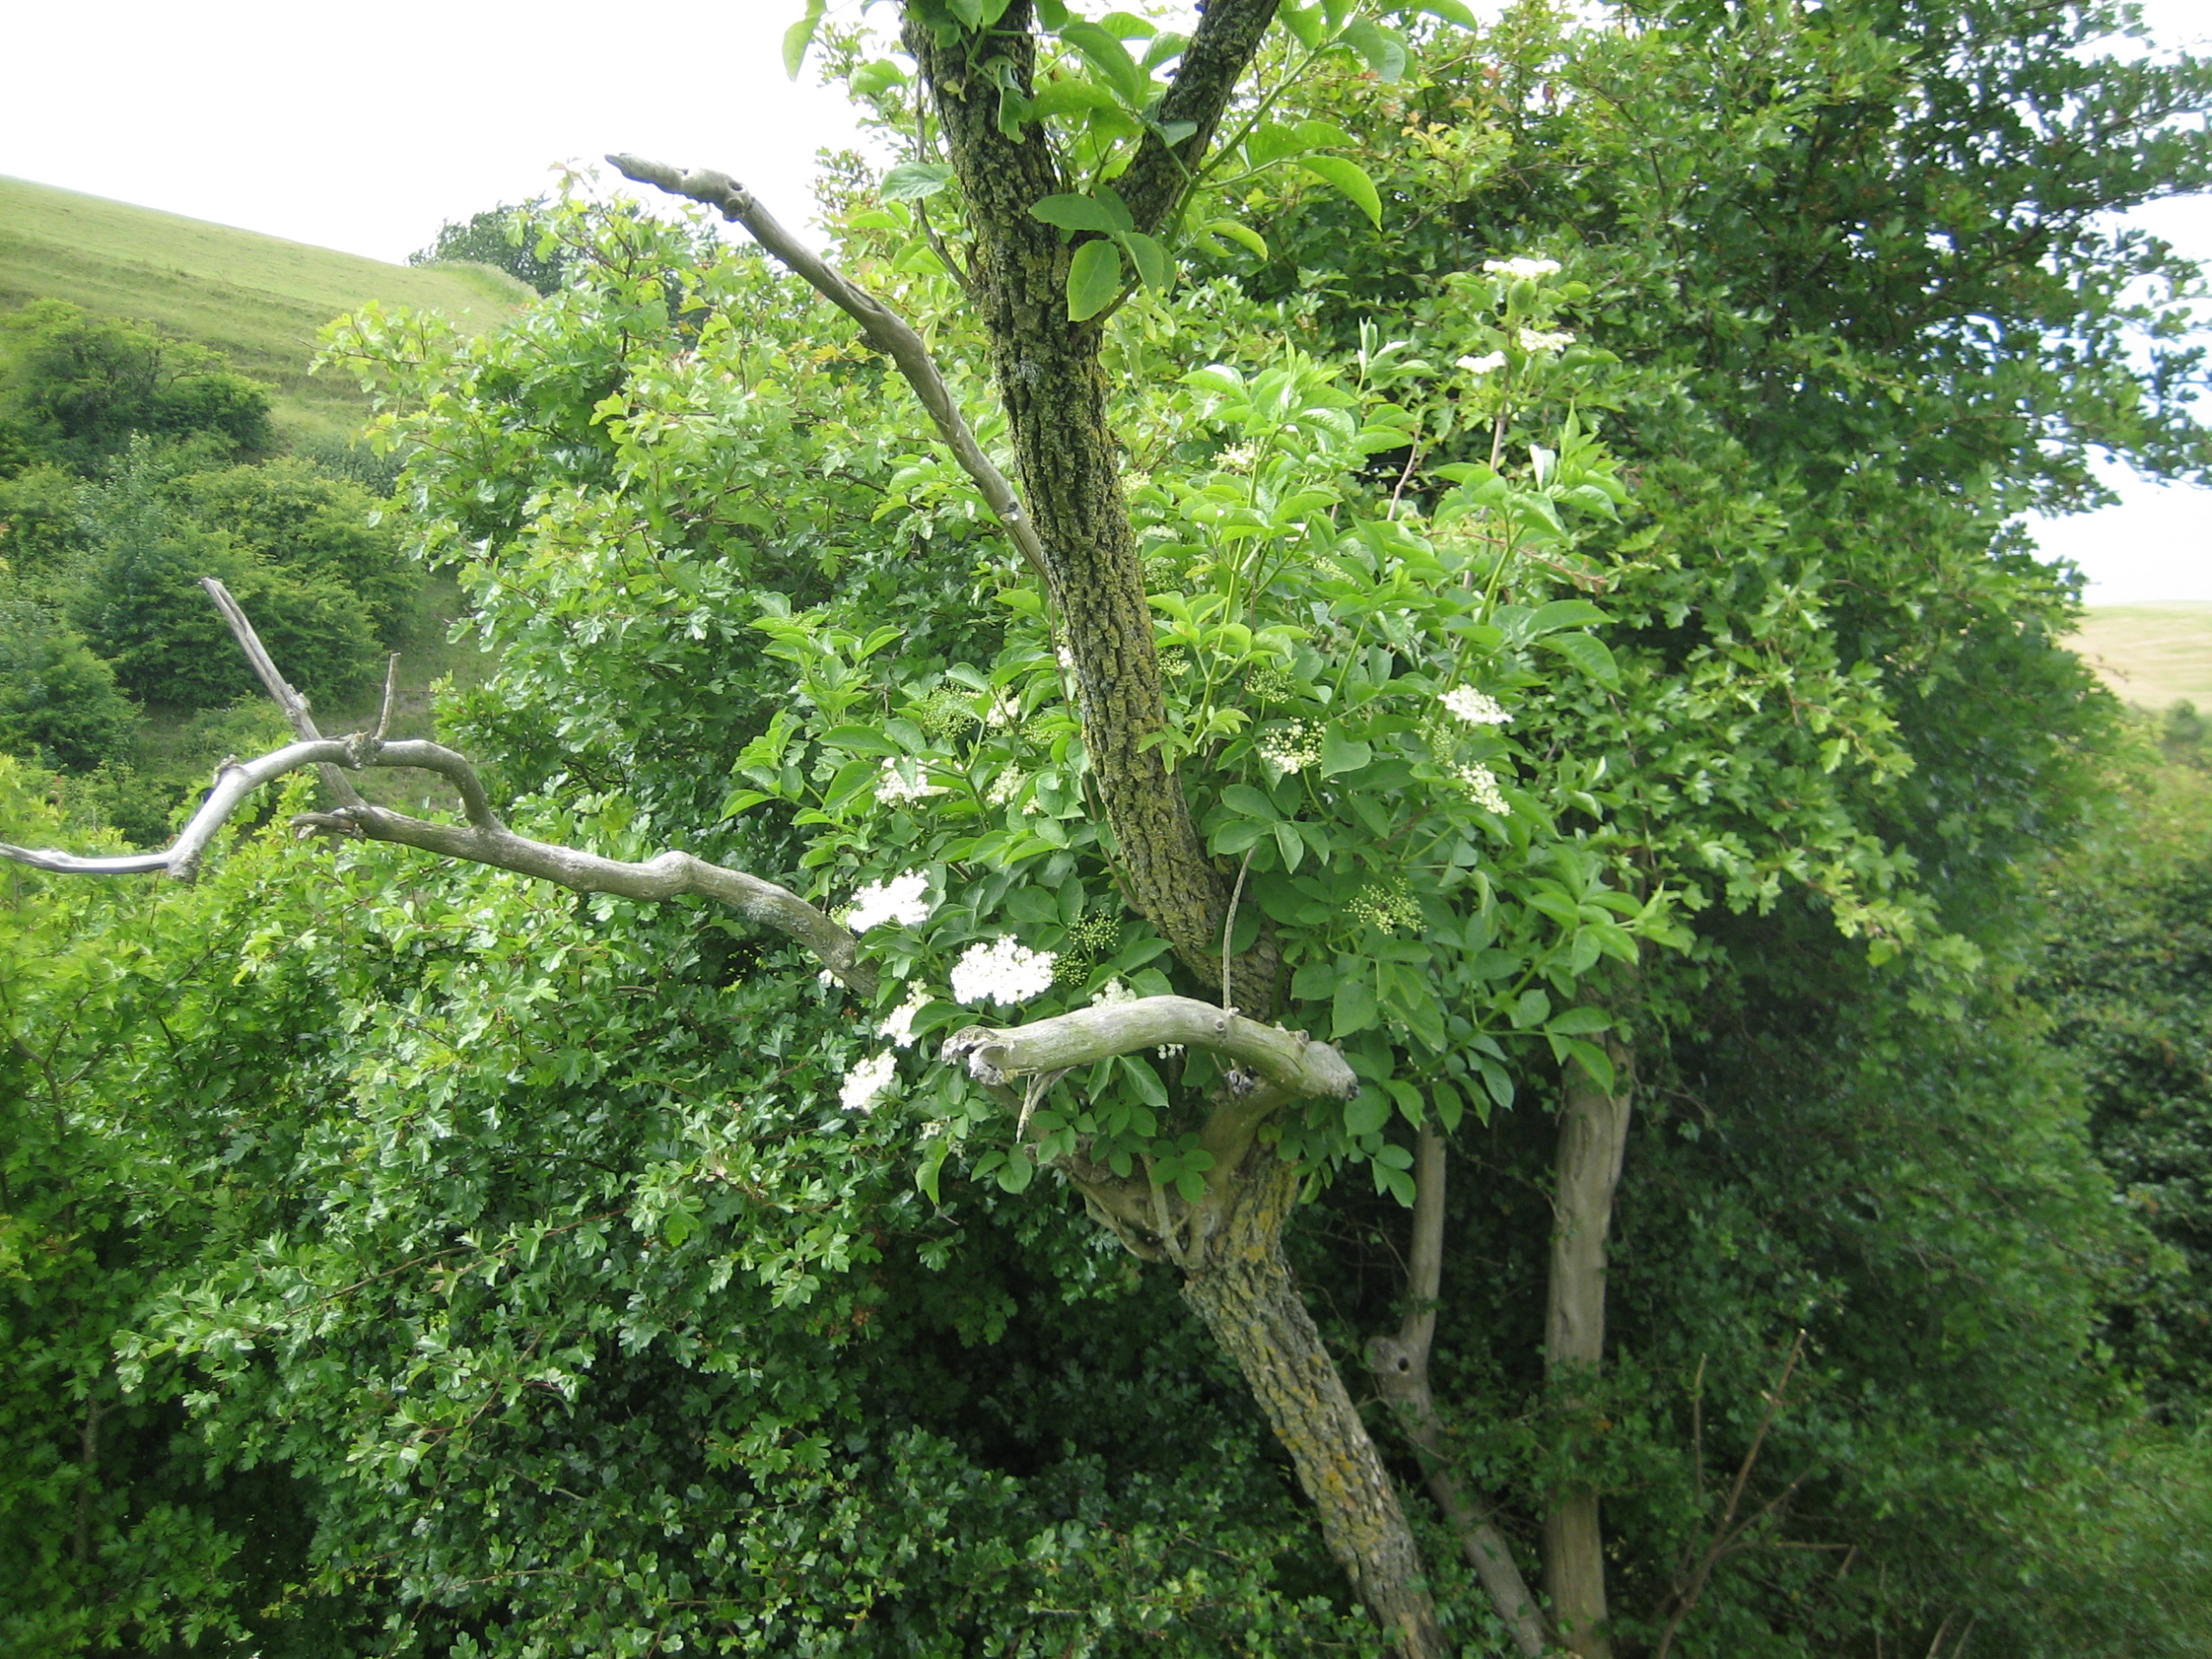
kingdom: Plantae
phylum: Tracheophyta
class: Magnoliopsida
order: Dipsacales
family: Viburnaceae
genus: Sambucus
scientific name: Sambucus nigra
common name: Almindelig hyld
